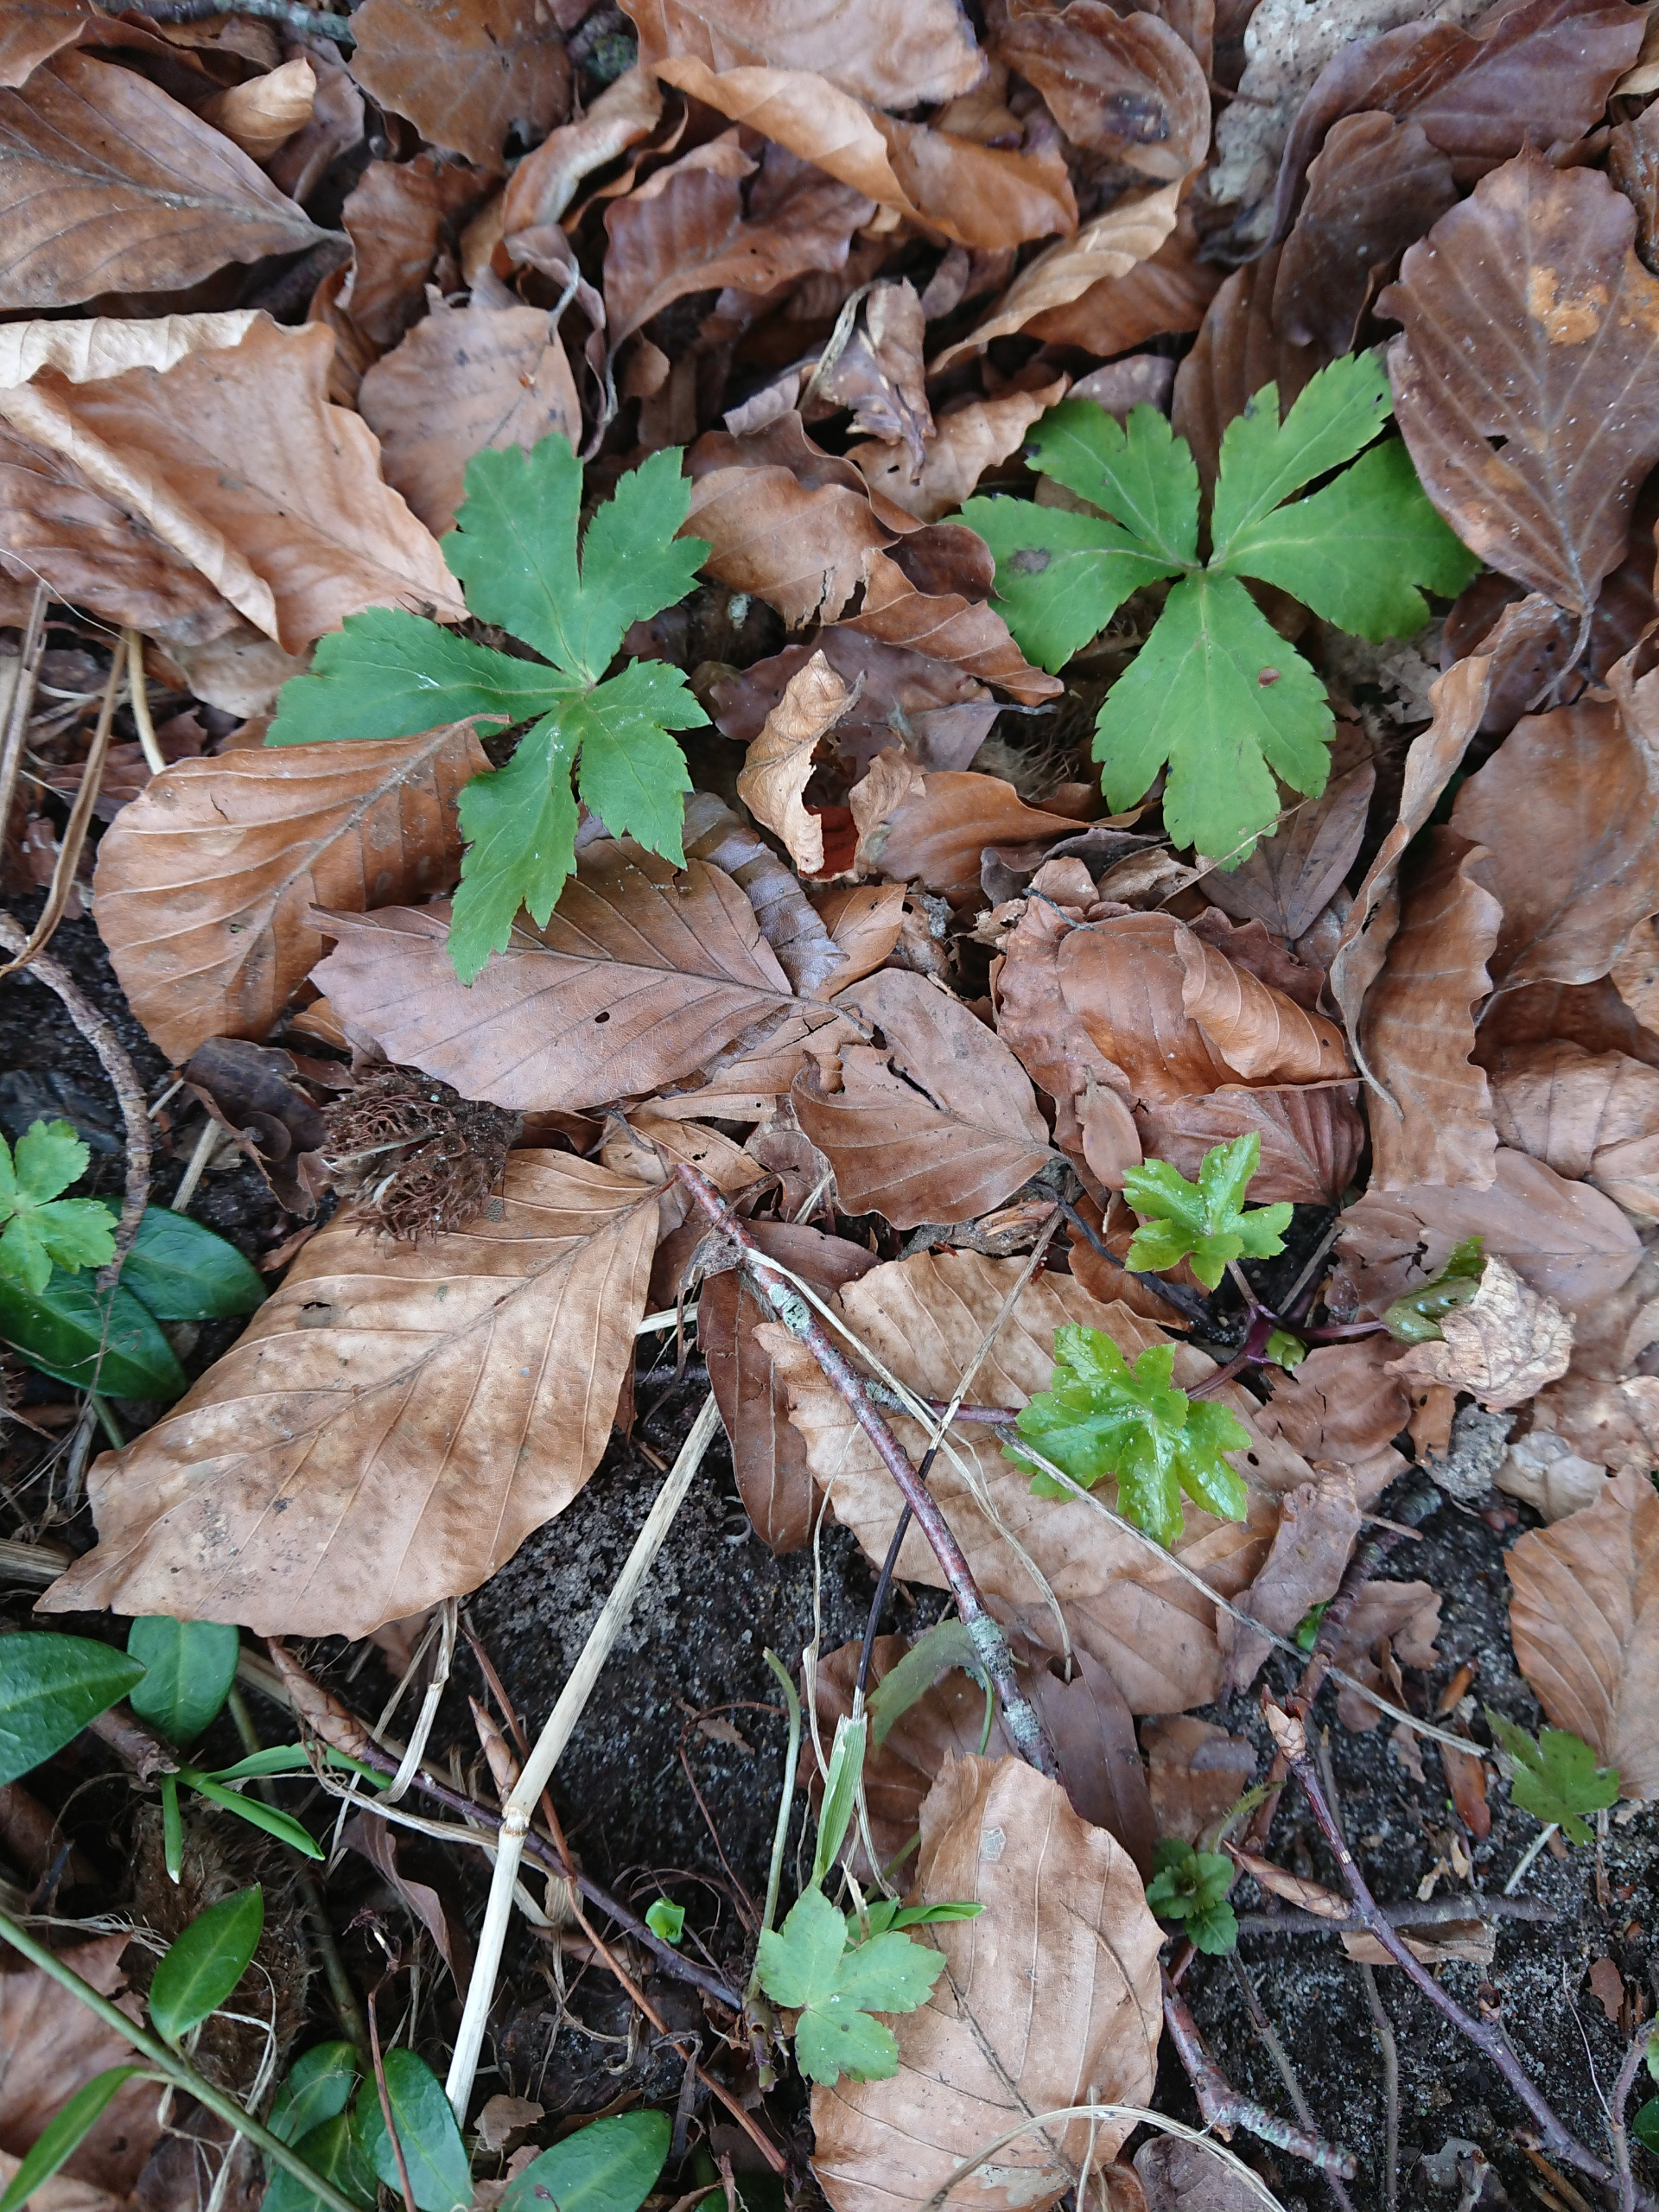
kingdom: Plantae
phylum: Tracheophyta
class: Magnoliopsida
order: Apiales
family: Apiaceae
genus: Sanicula
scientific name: Sanicula europaea
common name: Sanikel
